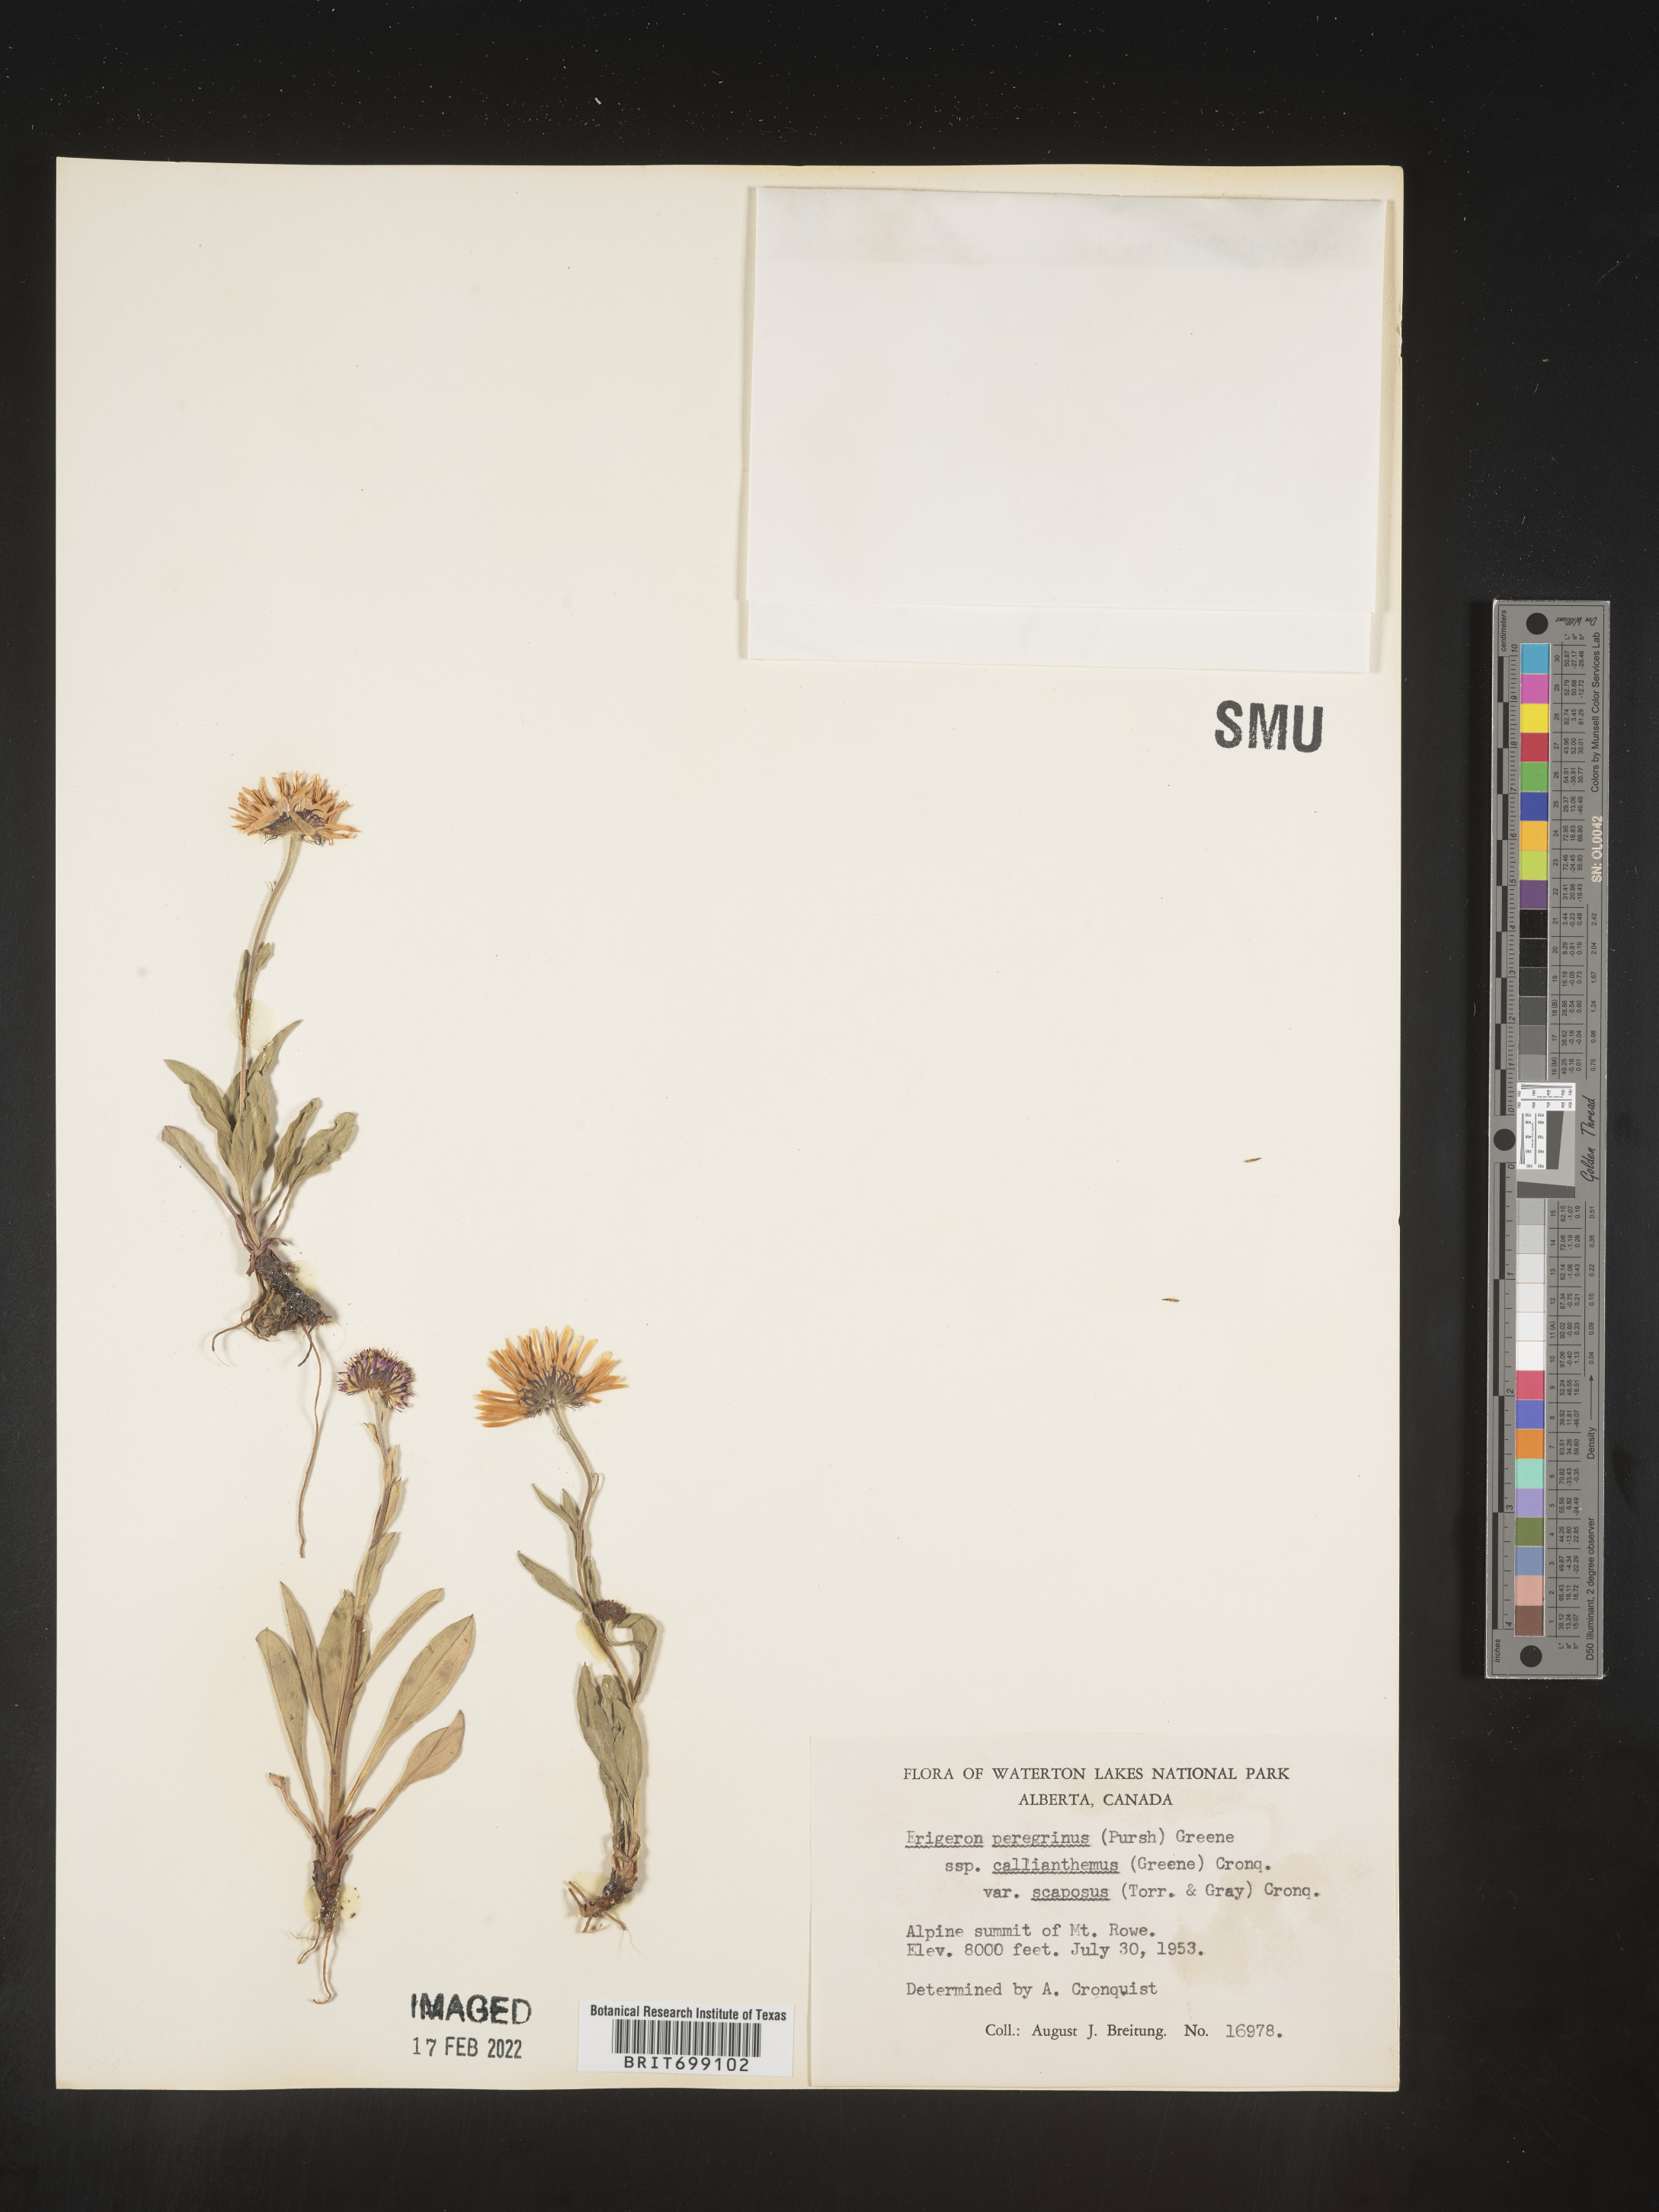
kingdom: Plantae
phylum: Tracheophyta
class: Magnoliopsida
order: Asterales
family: Asteraceae
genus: Erigeron
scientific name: Erigeron peregrinus
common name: Peregrine fleabane
